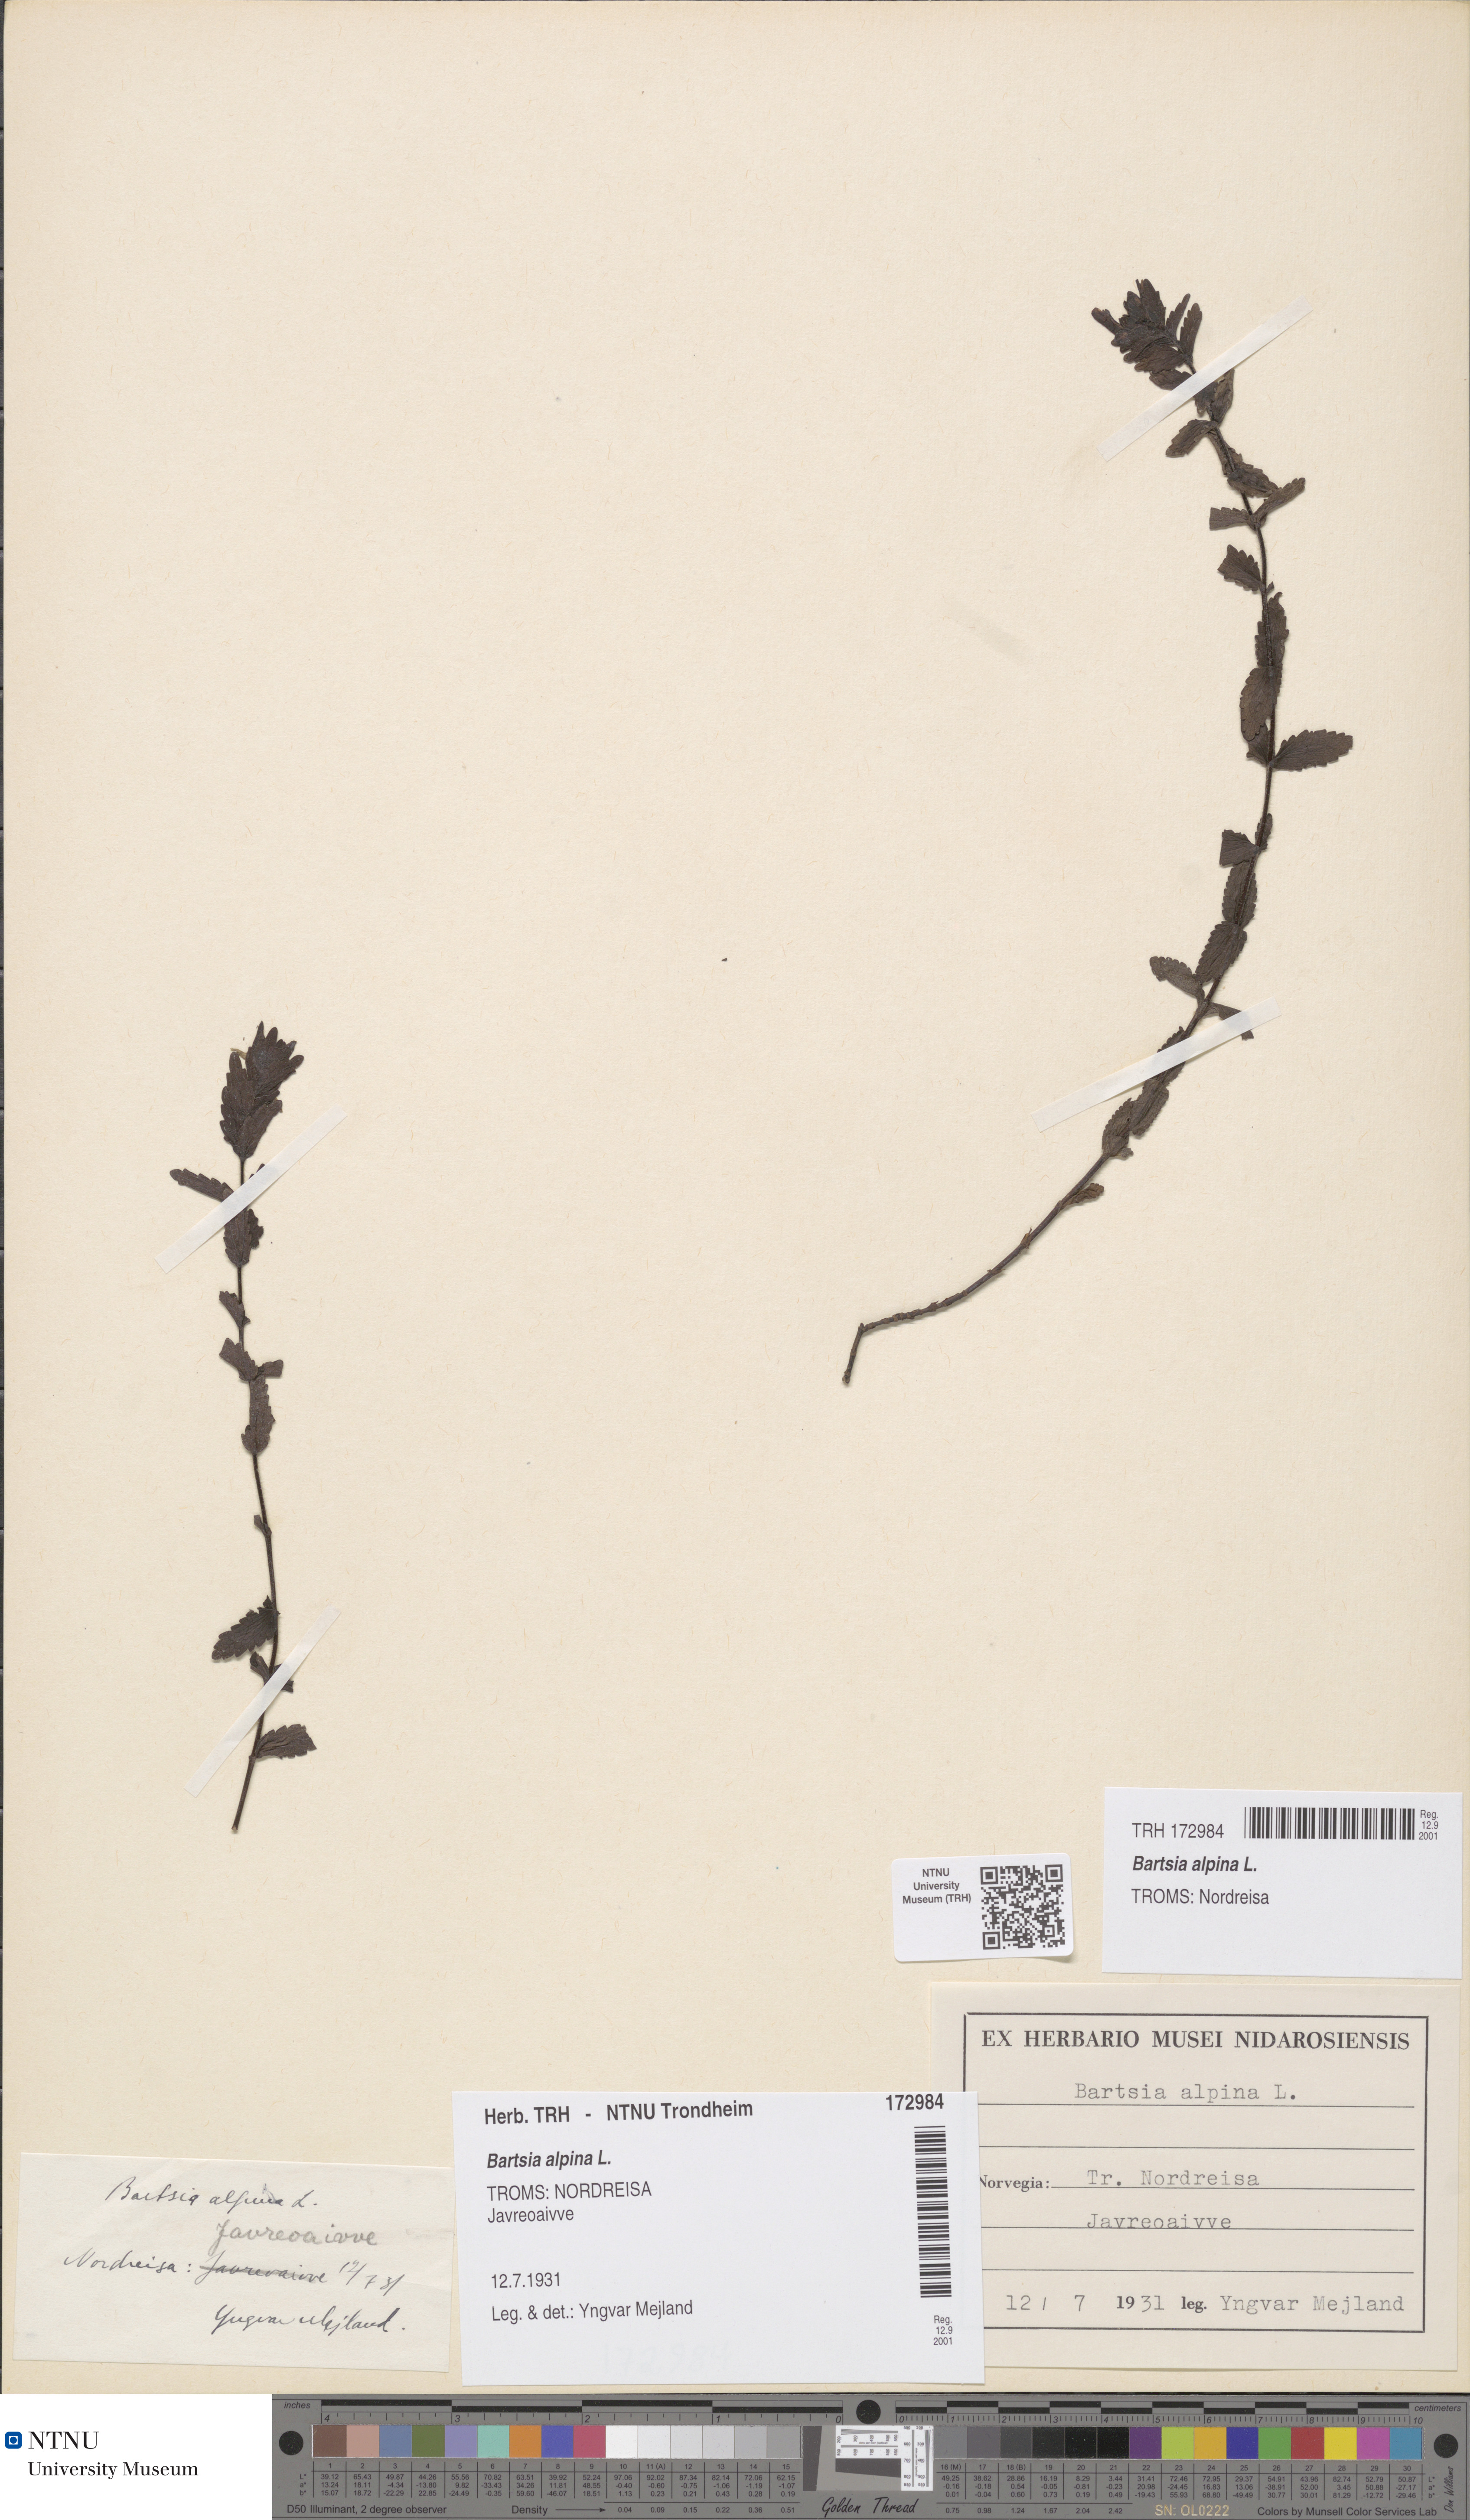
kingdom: Plantae
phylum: Tracheophyta
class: Magnoliopsida
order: Lamiales
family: Orobanchaceae
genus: Bartsia
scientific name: Bartsia alpina
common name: Alpine bartsia
